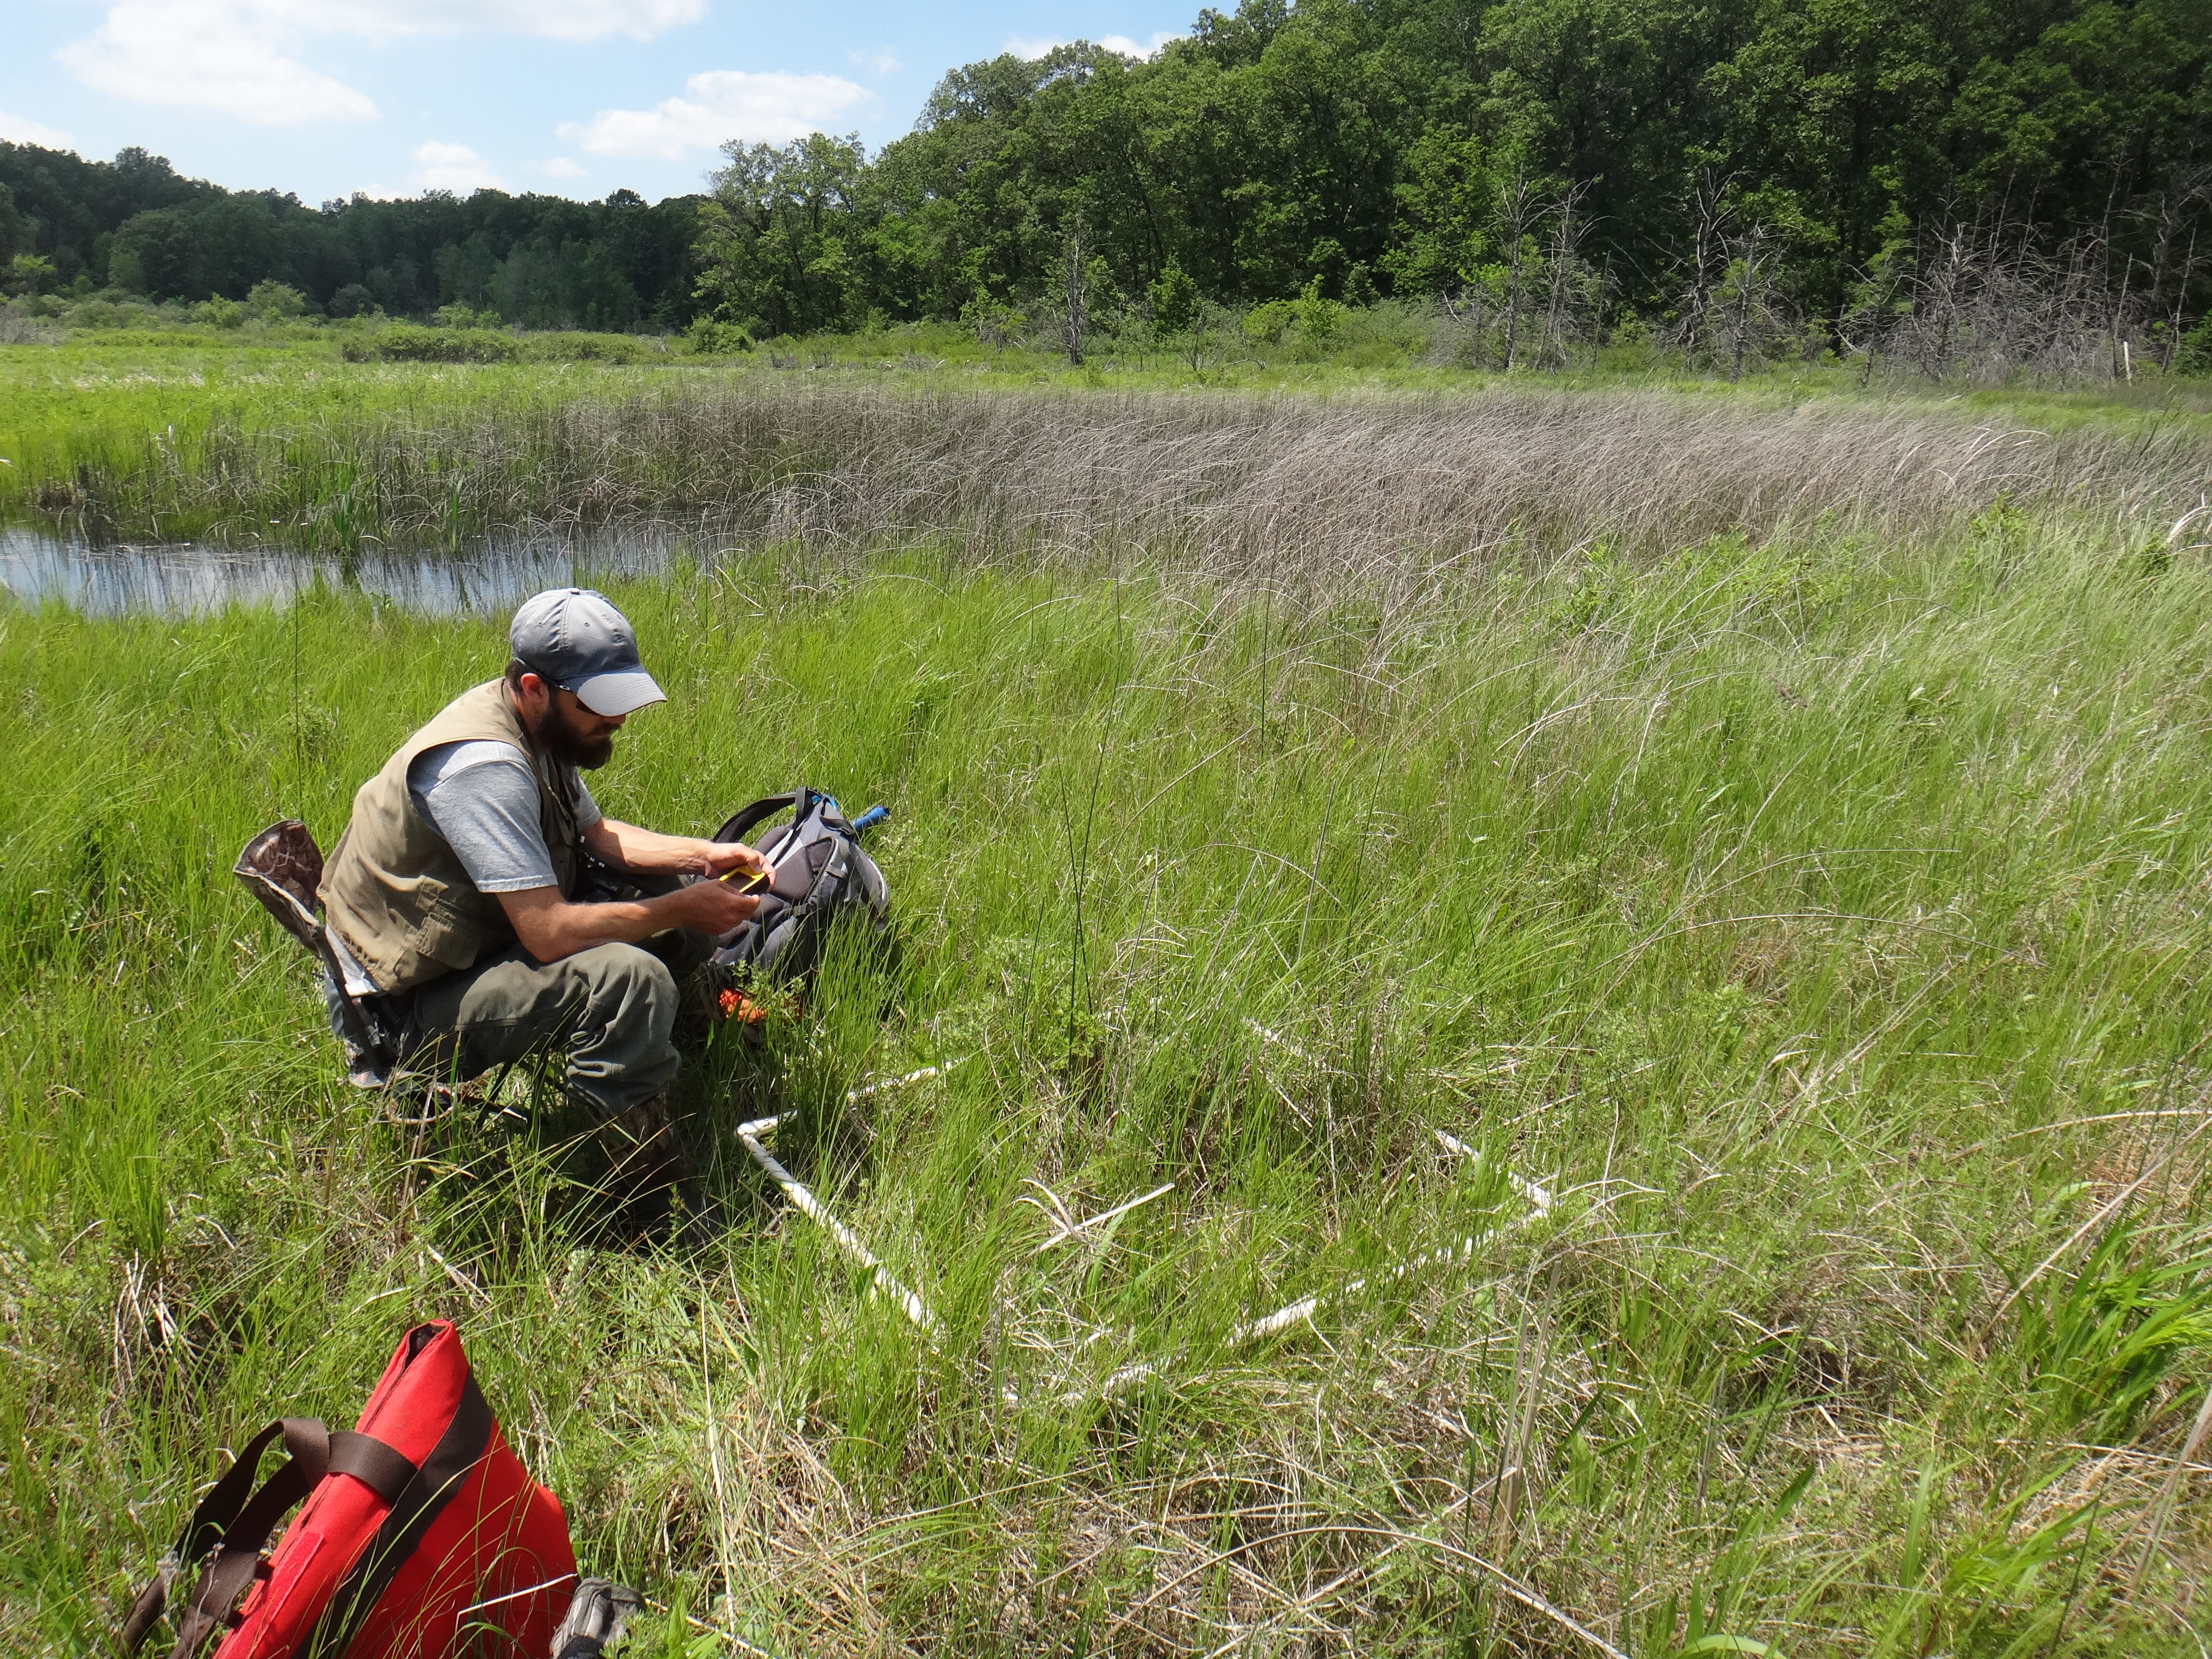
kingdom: Plantae
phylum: Tracheophyta
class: Magnoliopsida
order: Asterales
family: Asteraceae
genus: Solidago
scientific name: Solidago ohioensis
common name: Ohio goldenrod
